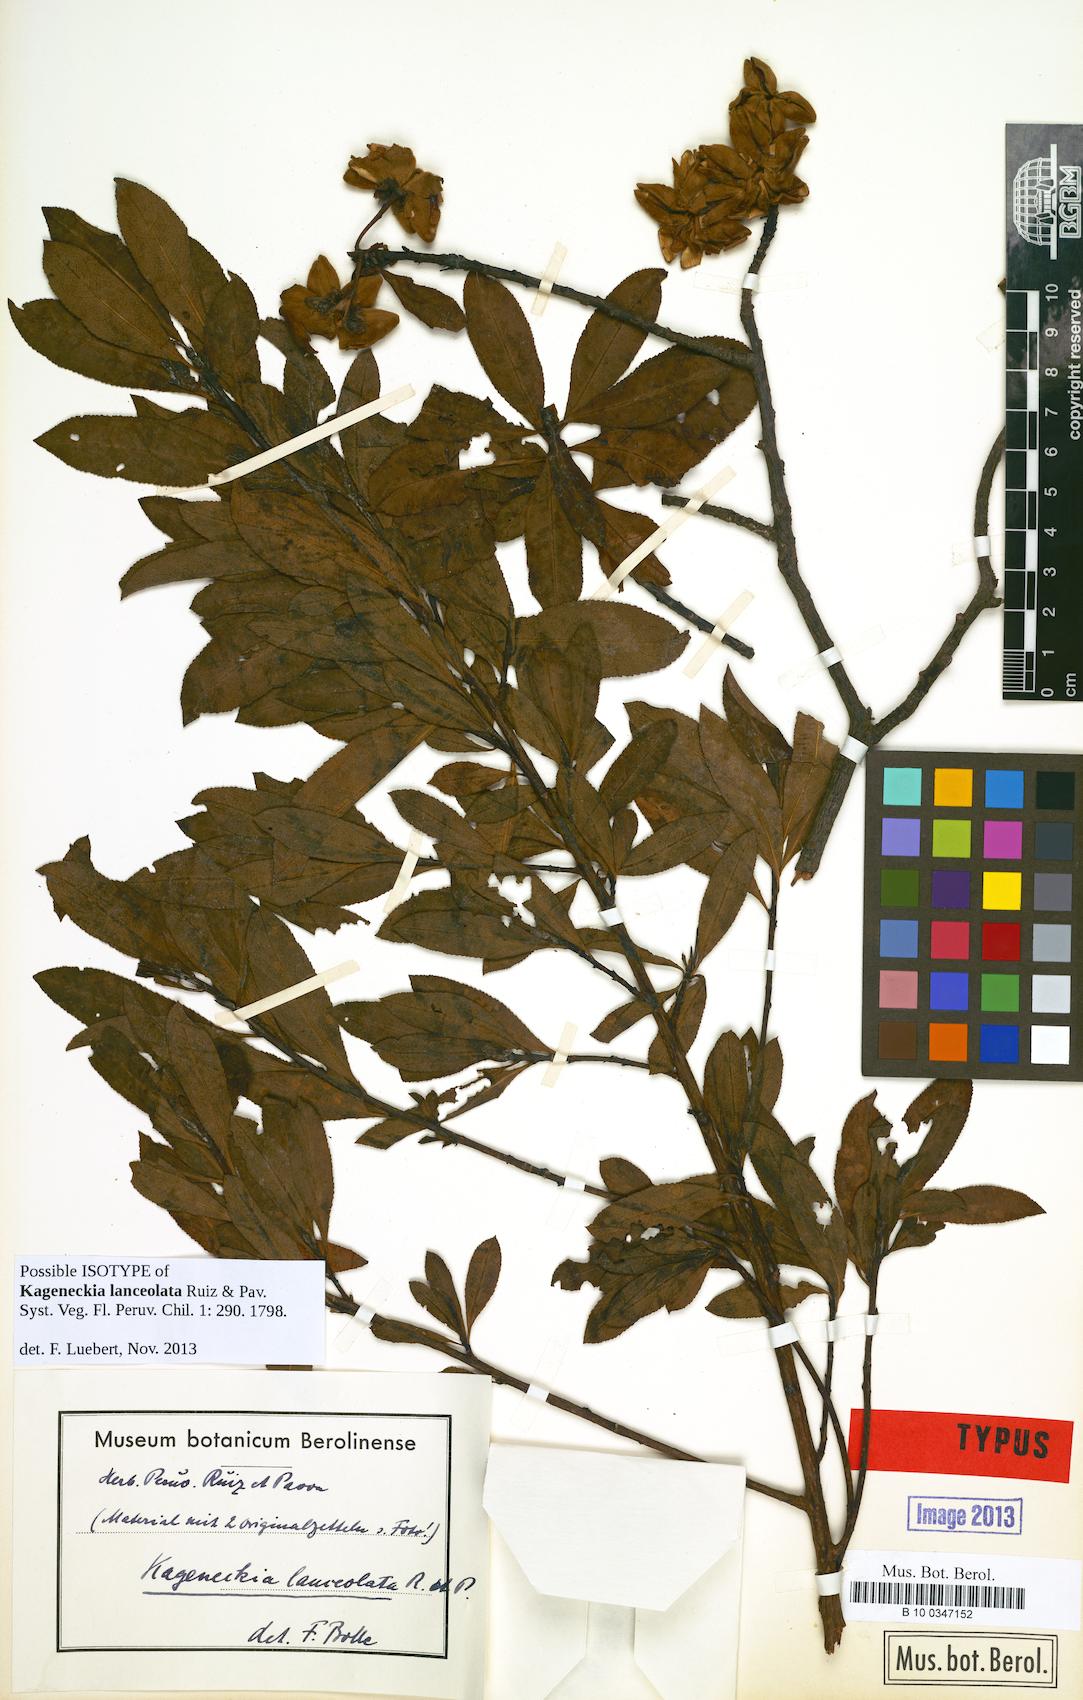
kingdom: Plantae
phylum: Tracheophyta
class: Magnoliopsida
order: Rosales
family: Rosaceae
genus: Kageneckia
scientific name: Kageneckia lanceolata
